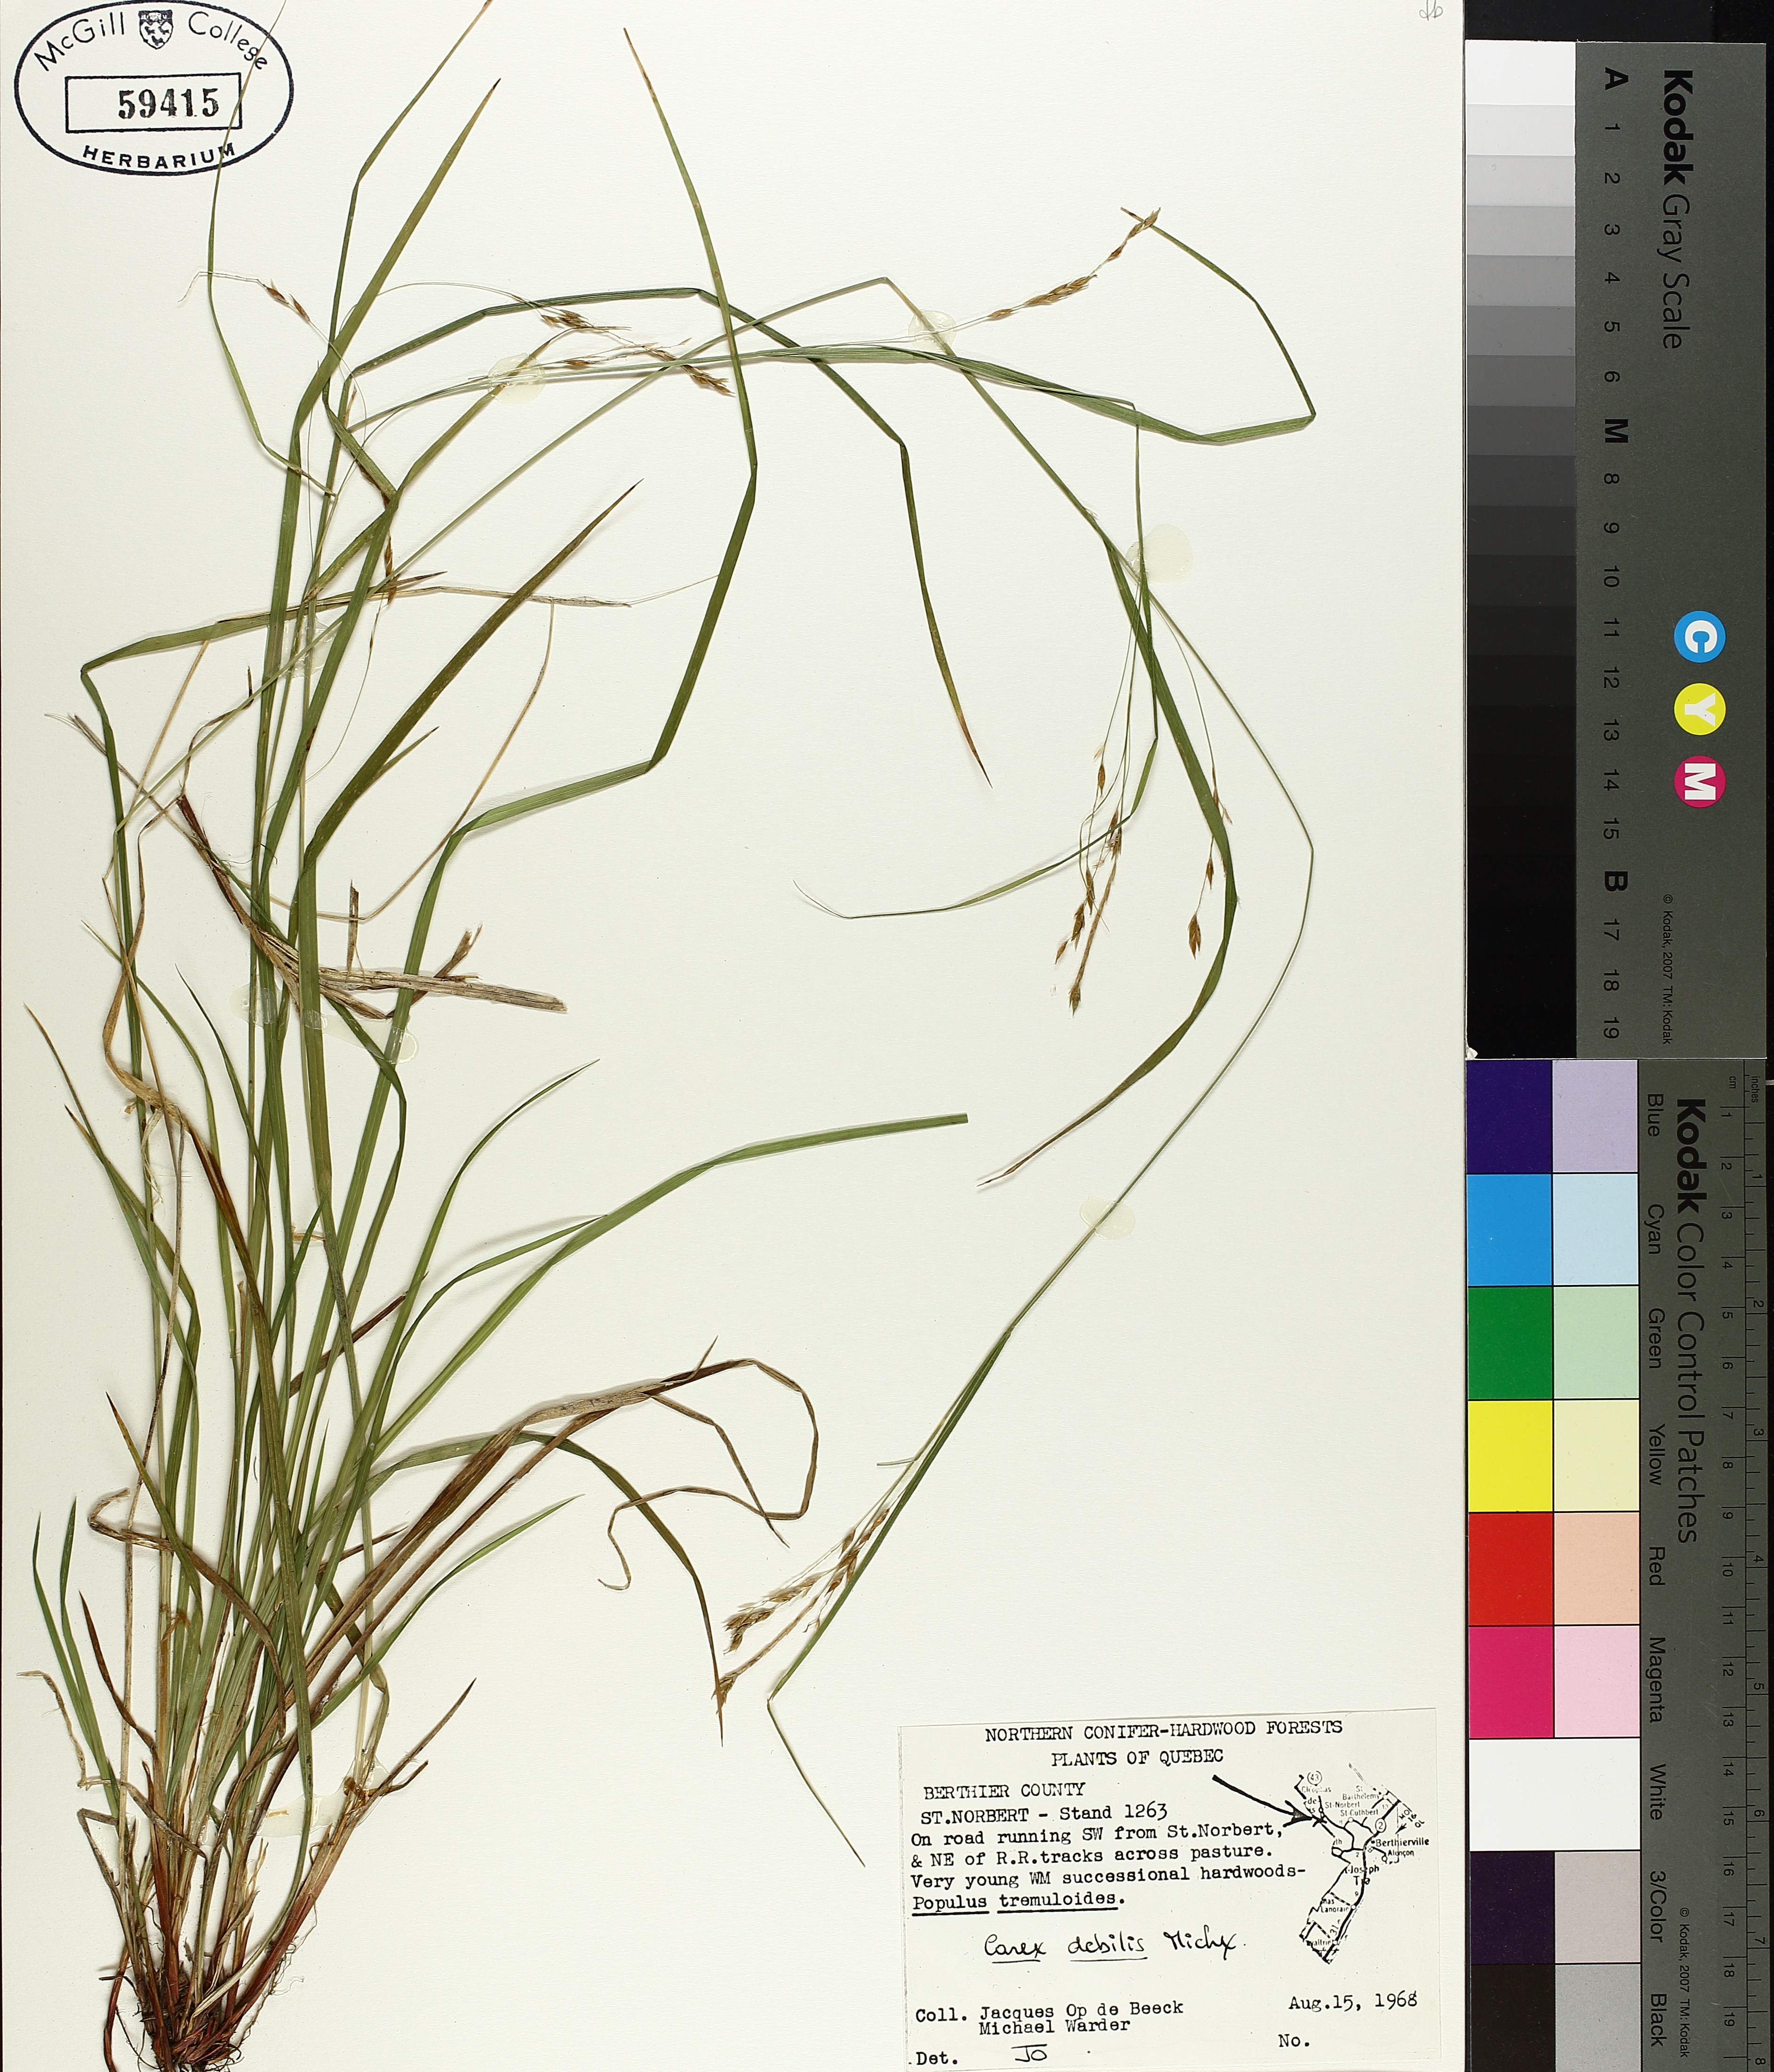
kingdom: Plantae
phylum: Tracheophyta
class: Liliopsida
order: Poales
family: Cyperaceae
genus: Carex
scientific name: Carex debilis
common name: White-edge sedge
